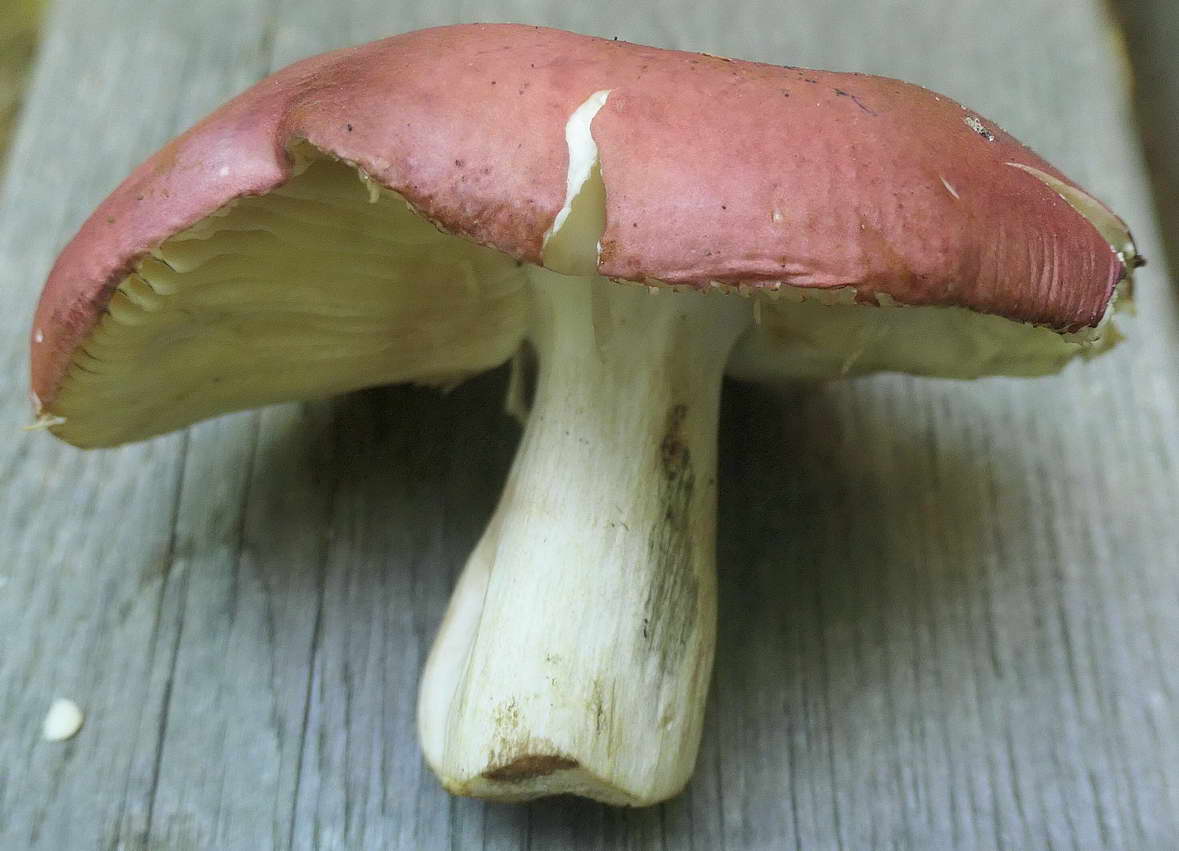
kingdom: Fungi
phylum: Basidiomycota
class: Agaricomycetes
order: Russulales
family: Russulaceae
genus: Russula
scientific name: Russula faginea
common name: bøge-skørhat
